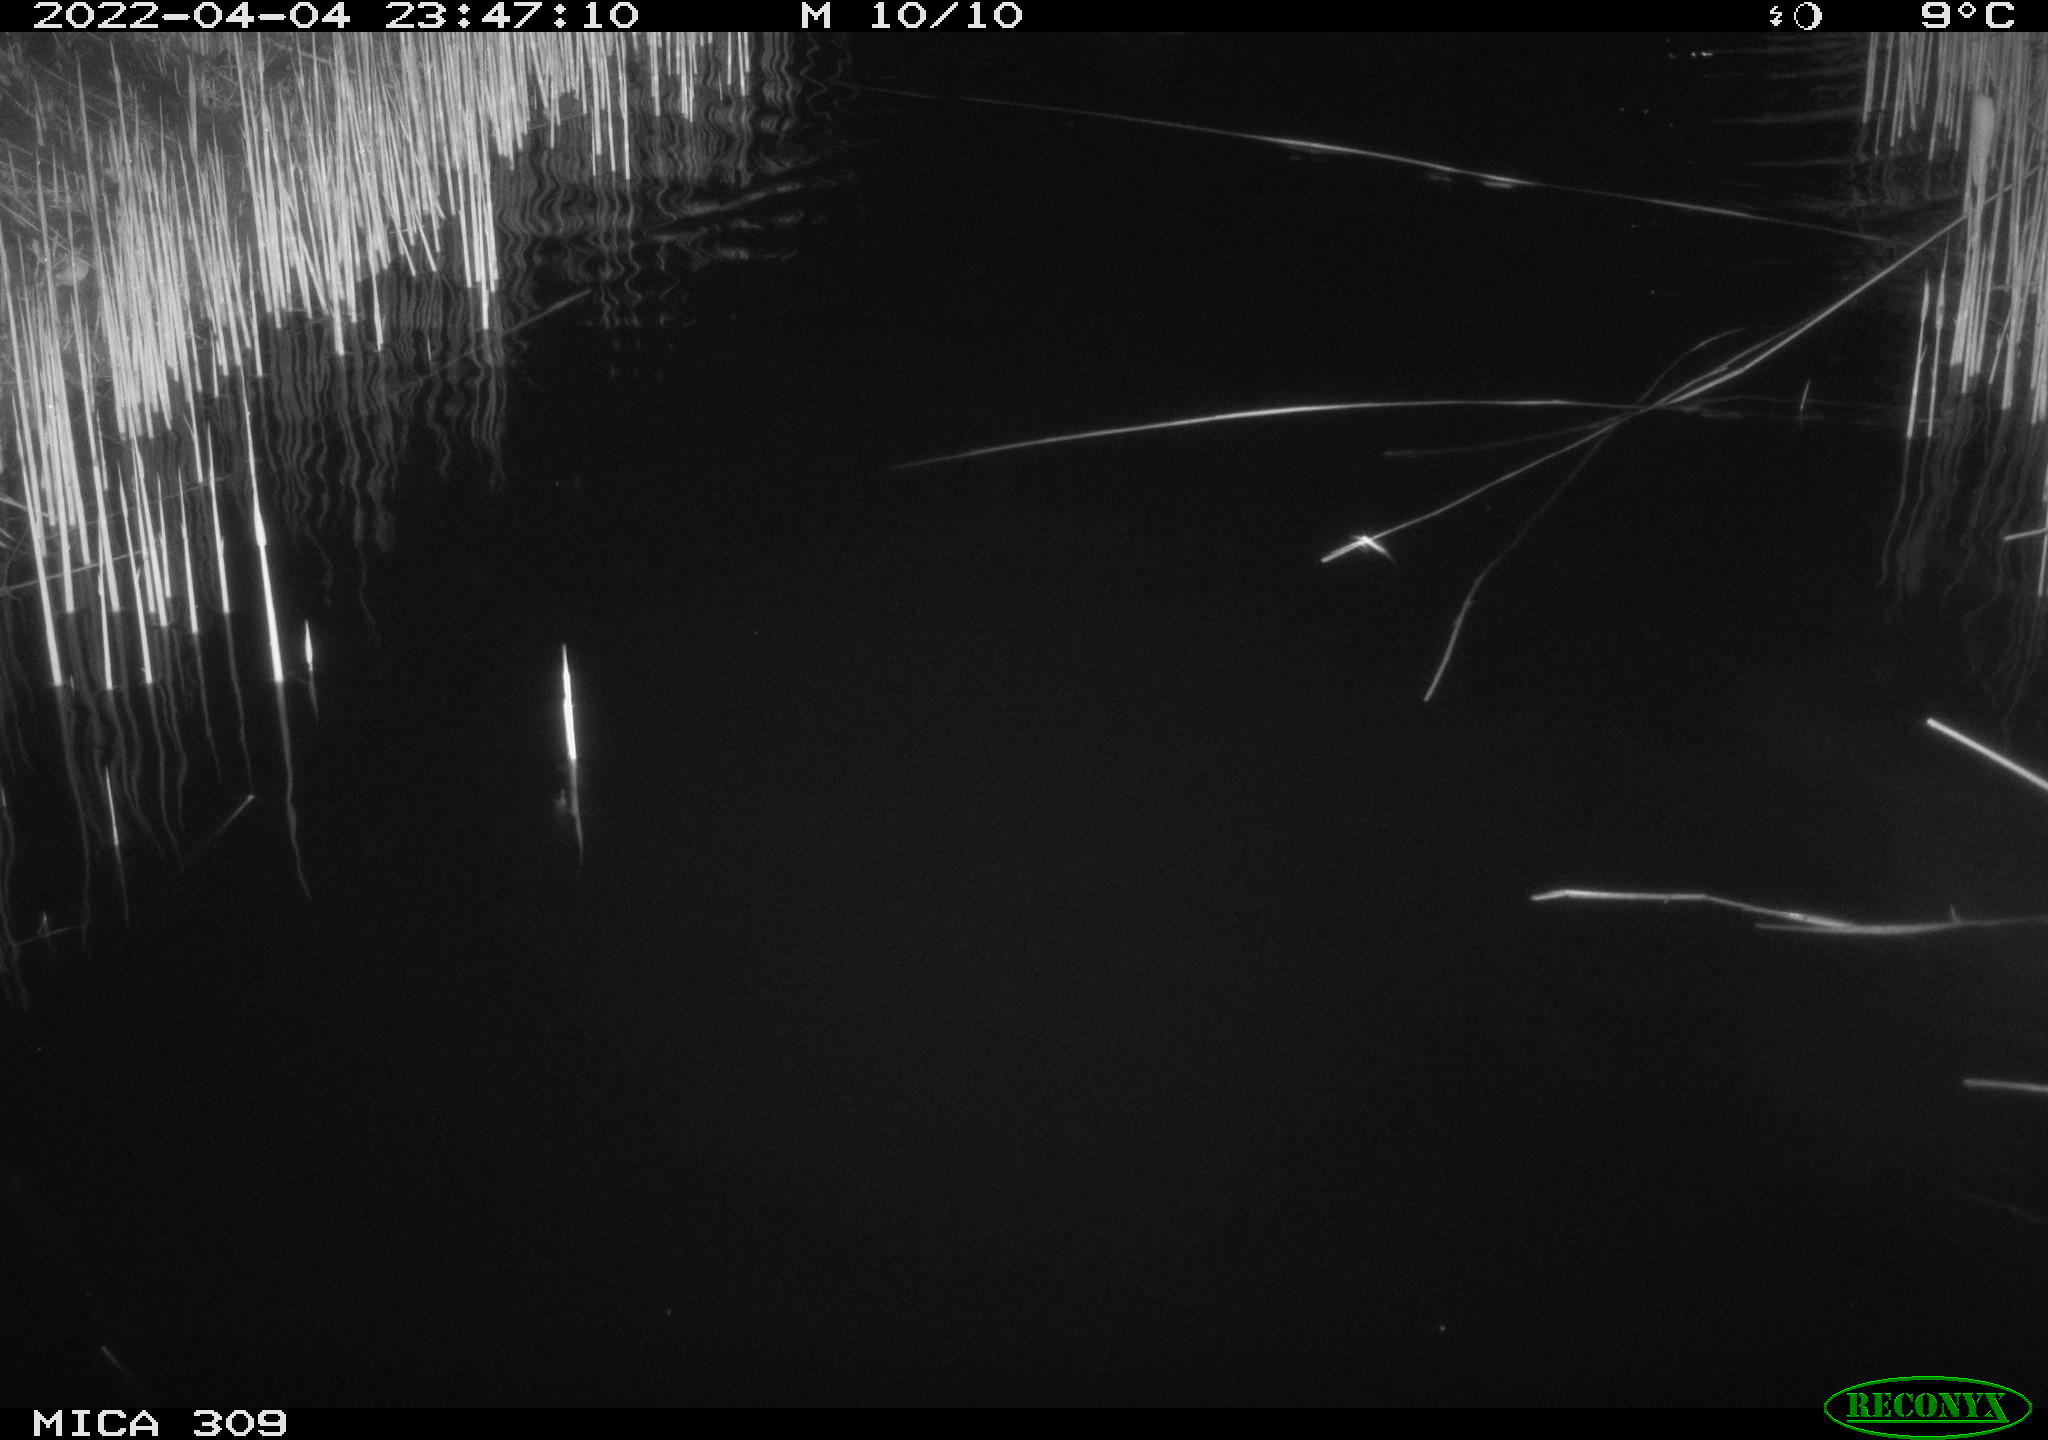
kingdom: Animalia
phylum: Chordata
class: Aves
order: Anseriformes
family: Anatidae
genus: Anas
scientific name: Anas platyrhynchos
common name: Mallard
